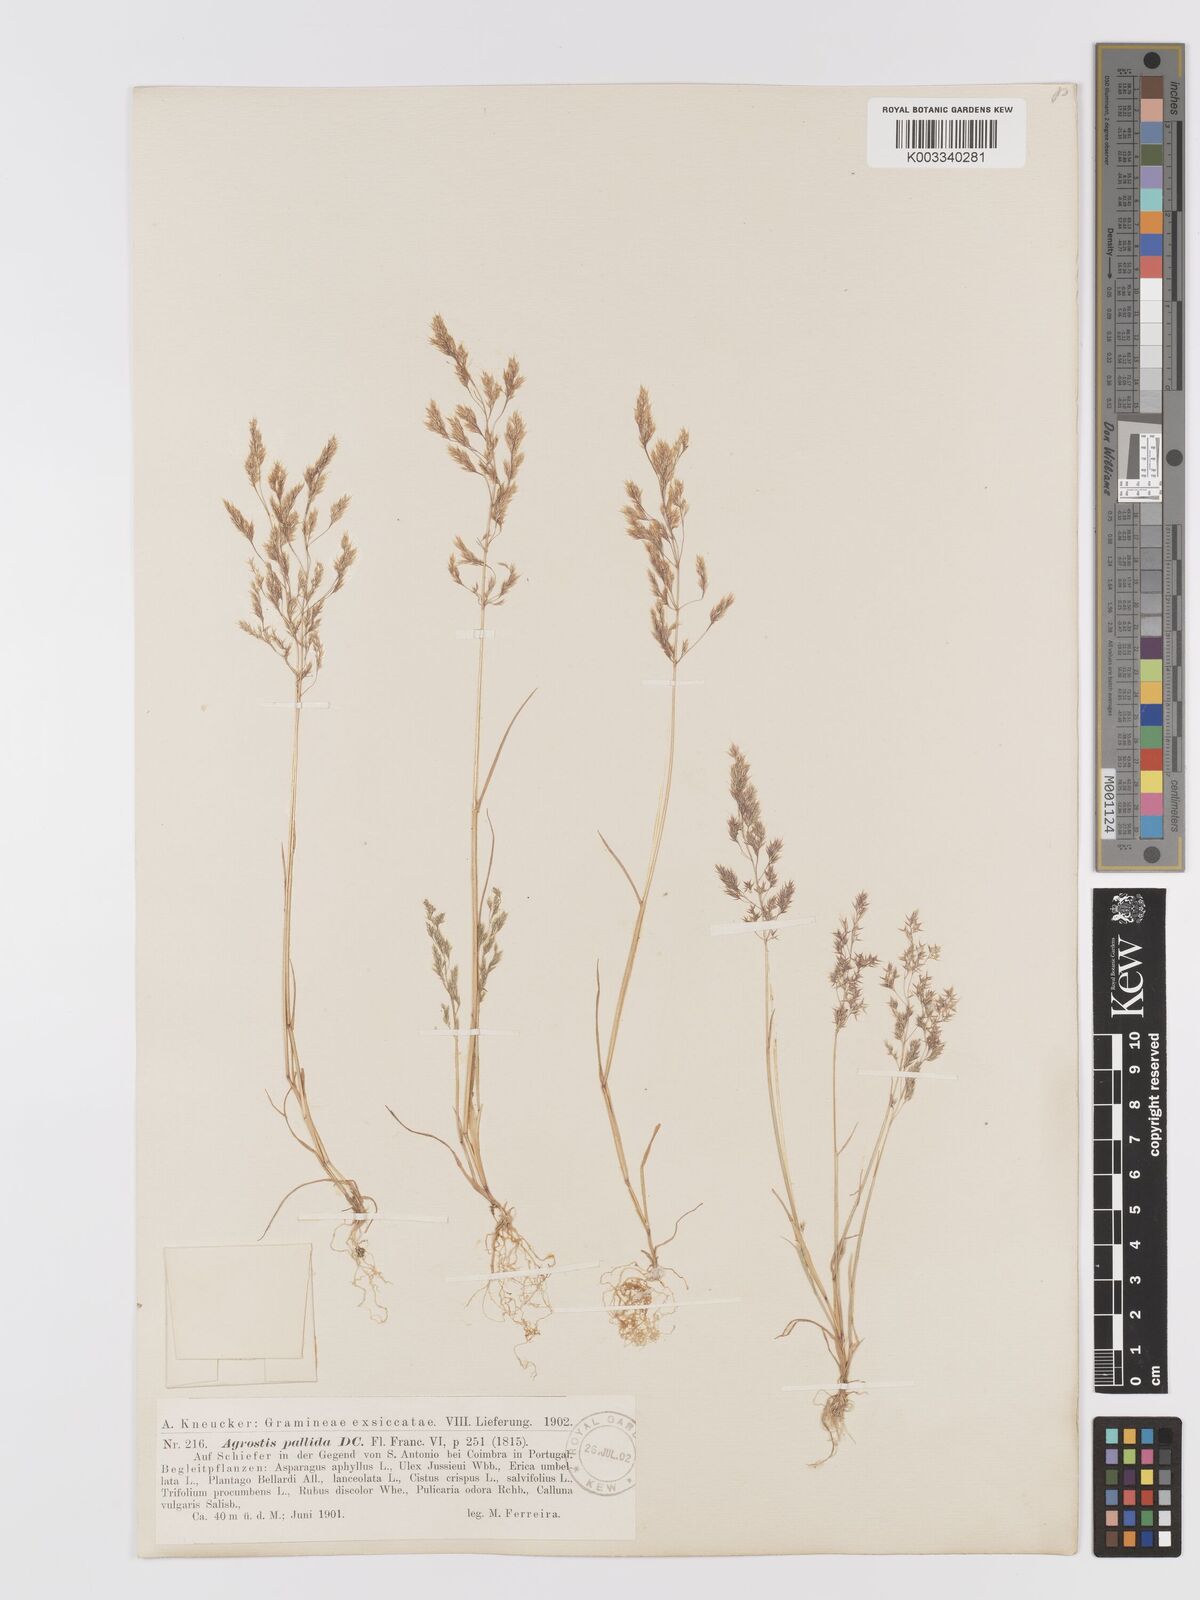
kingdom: Plantae
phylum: Tracheophyta
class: Liliopsida
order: Poales
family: Poaceae
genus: Agrostis
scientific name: Agrostis pourretii
